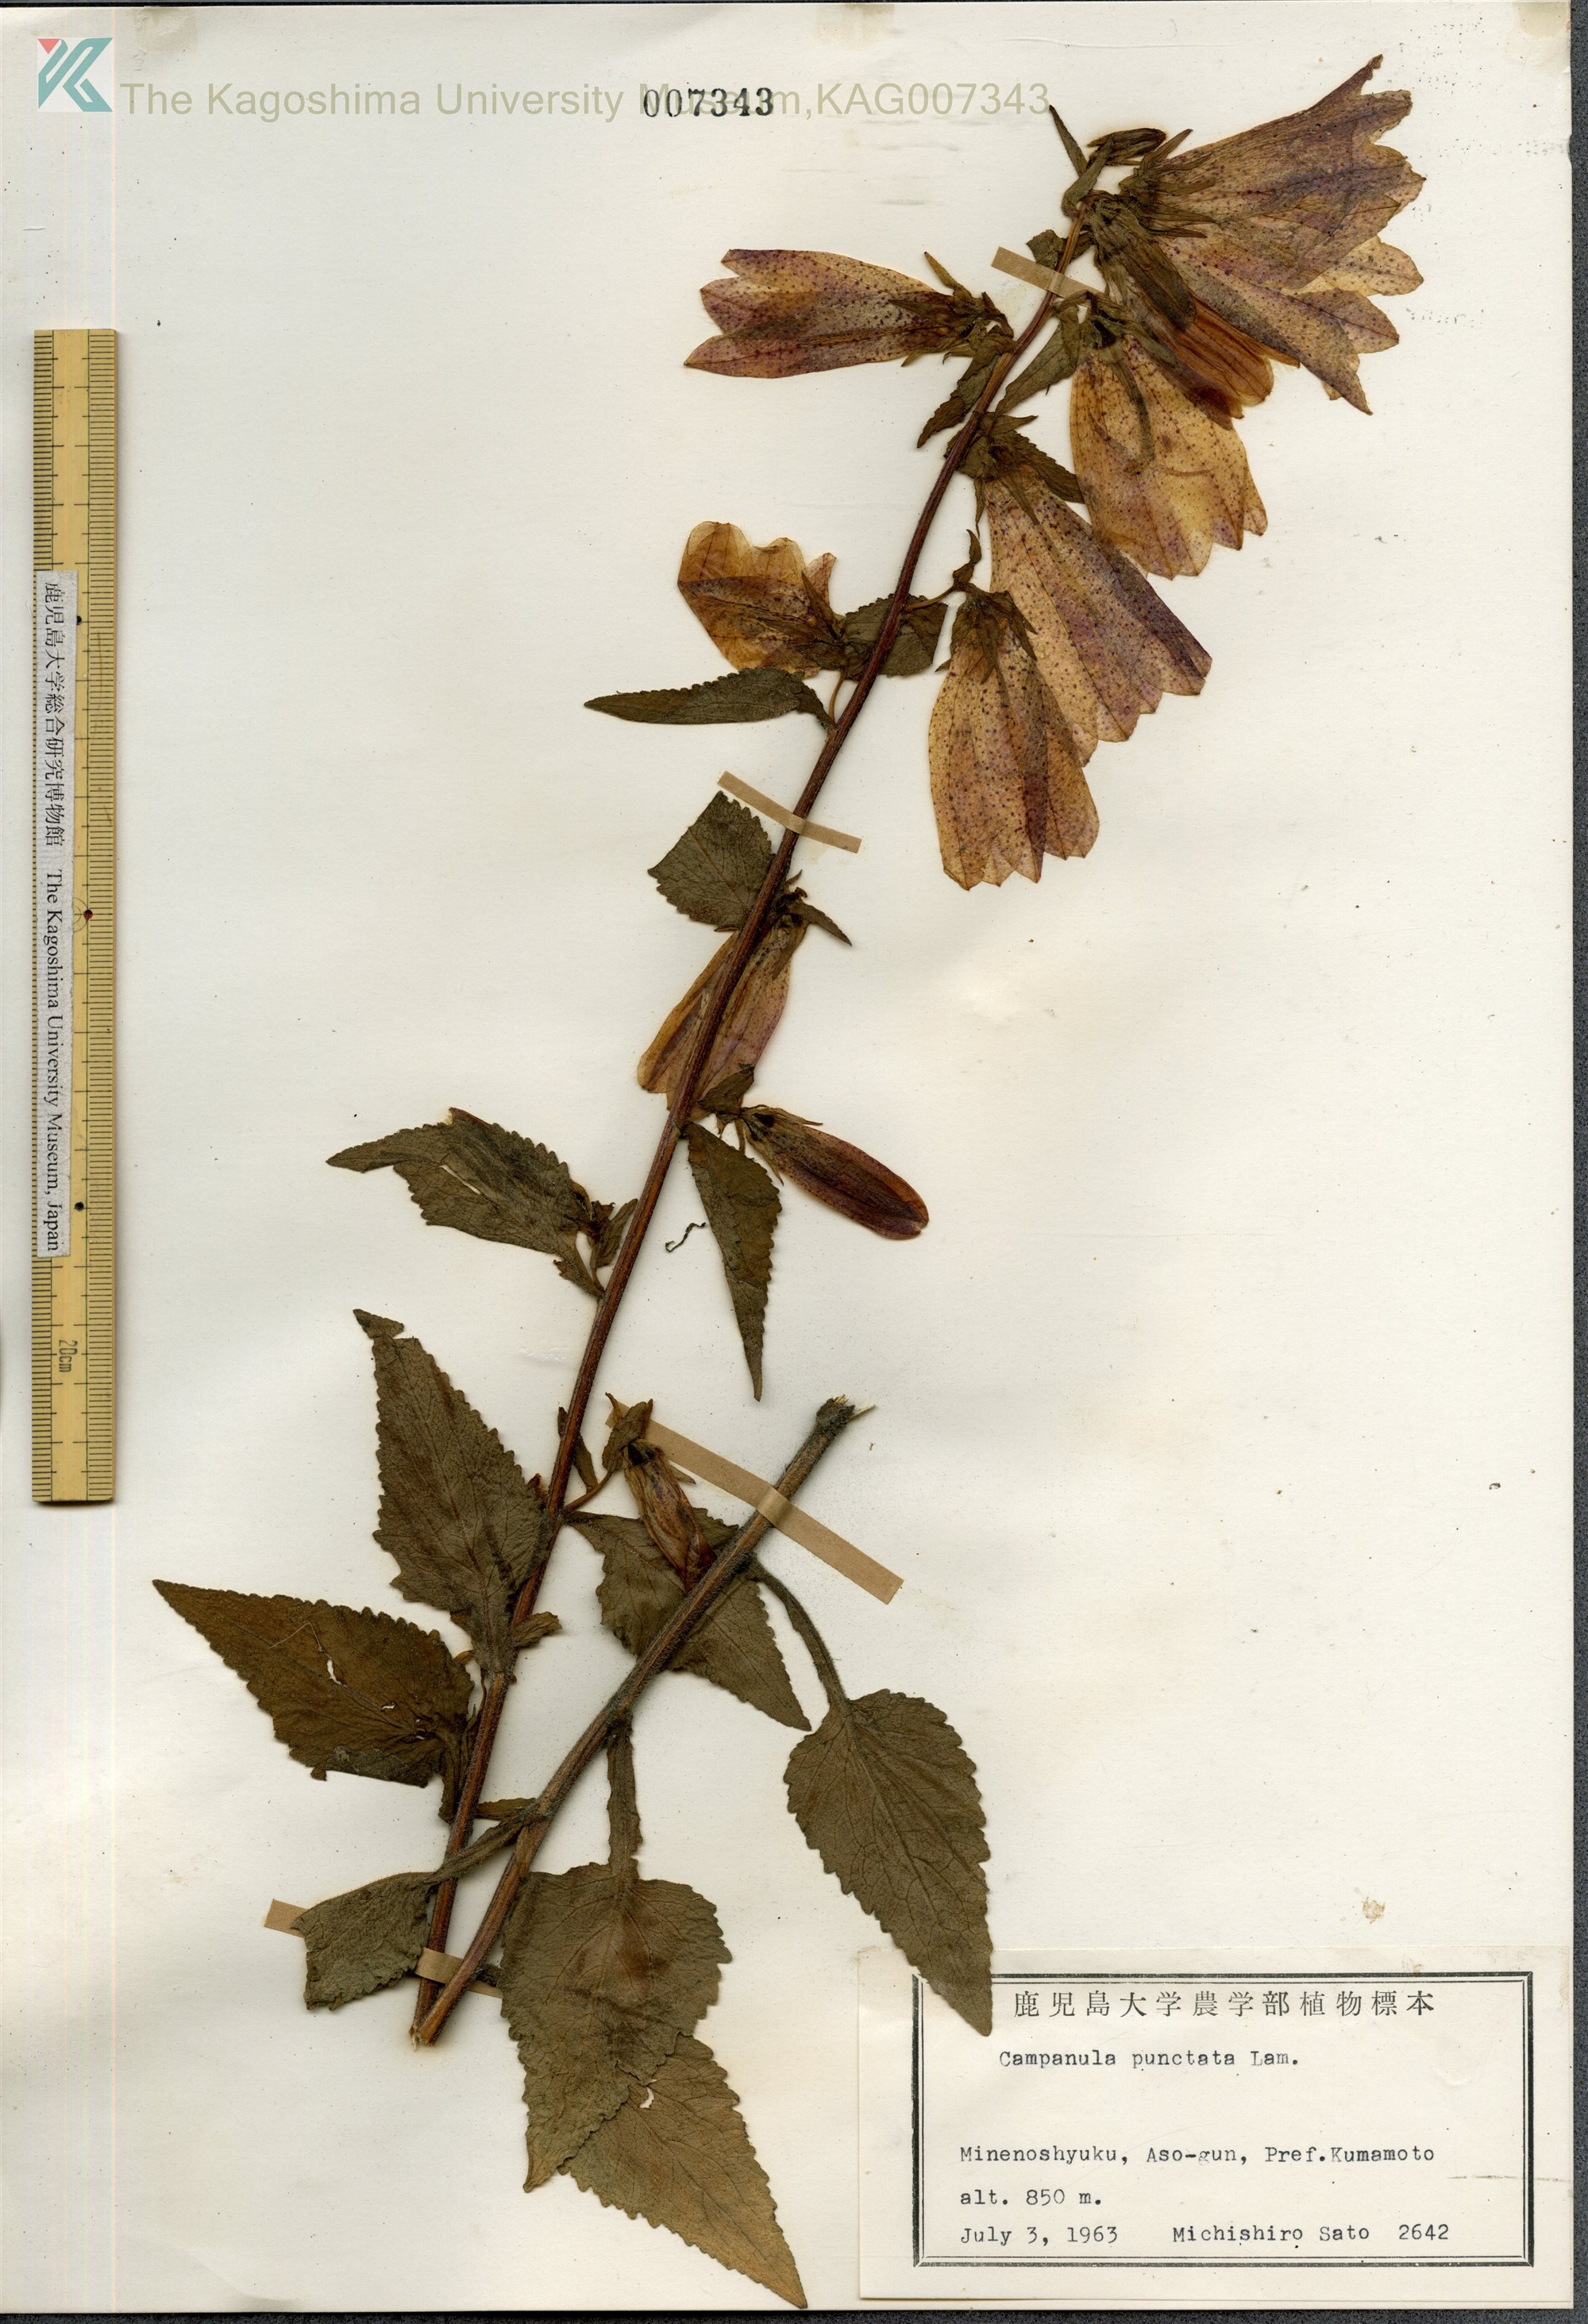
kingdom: Plantae
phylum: Tracheophyta
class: Magnoliopsida
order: Asterales
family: Campanulaceae
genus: Campanula
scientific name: Campanula punctata
